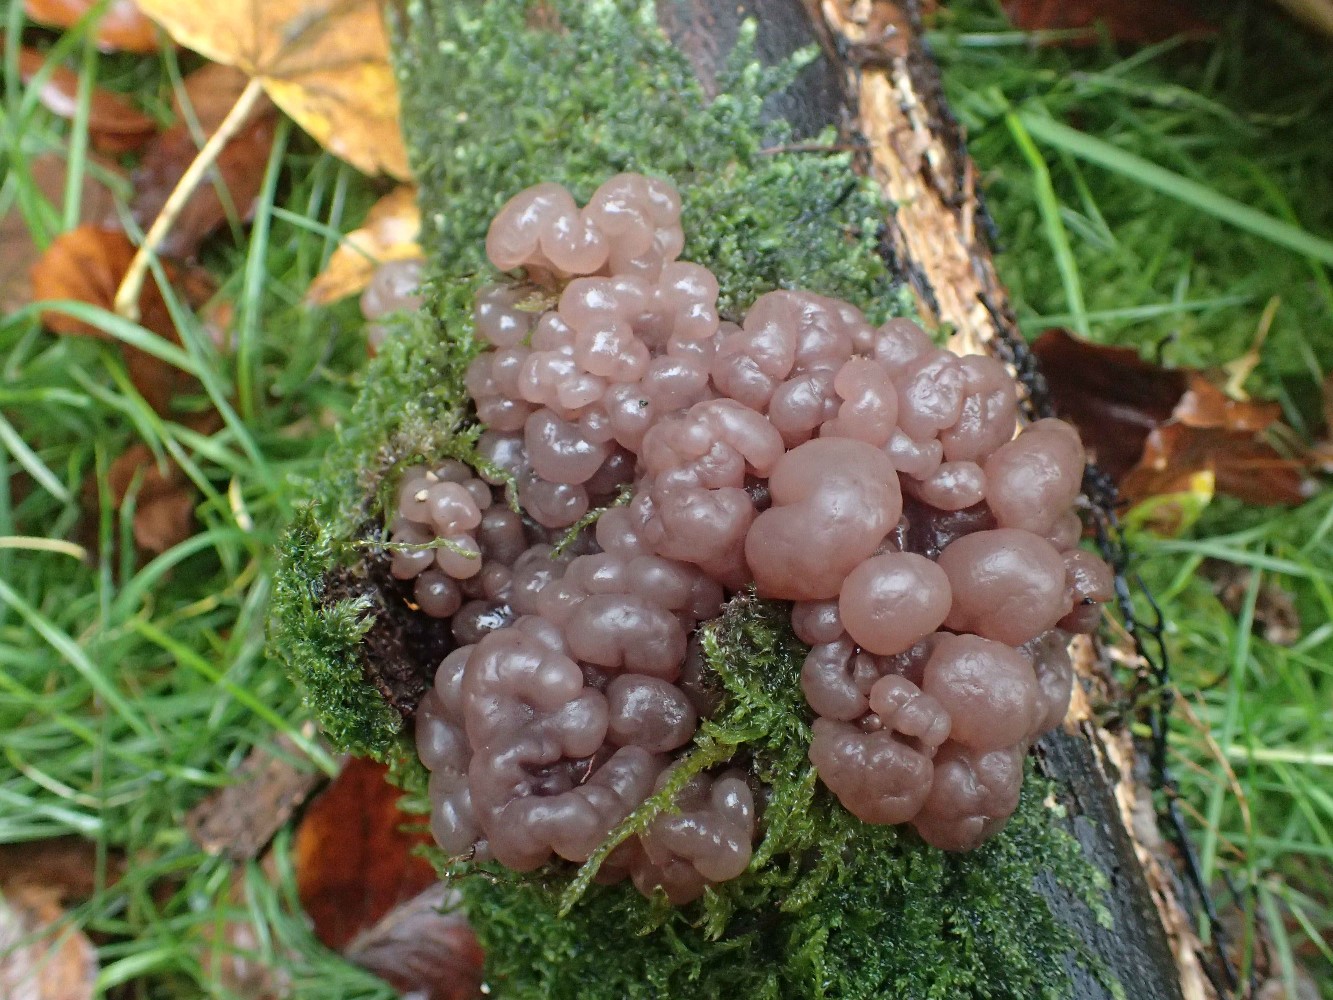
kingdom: Fungi
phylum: Ascomycota
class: Leotiomycetes
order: Helotiales
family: Gelatinodiscaceae
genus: Ascotremella
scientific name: Ascotremella faginea
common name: hjerne-bævreskive
